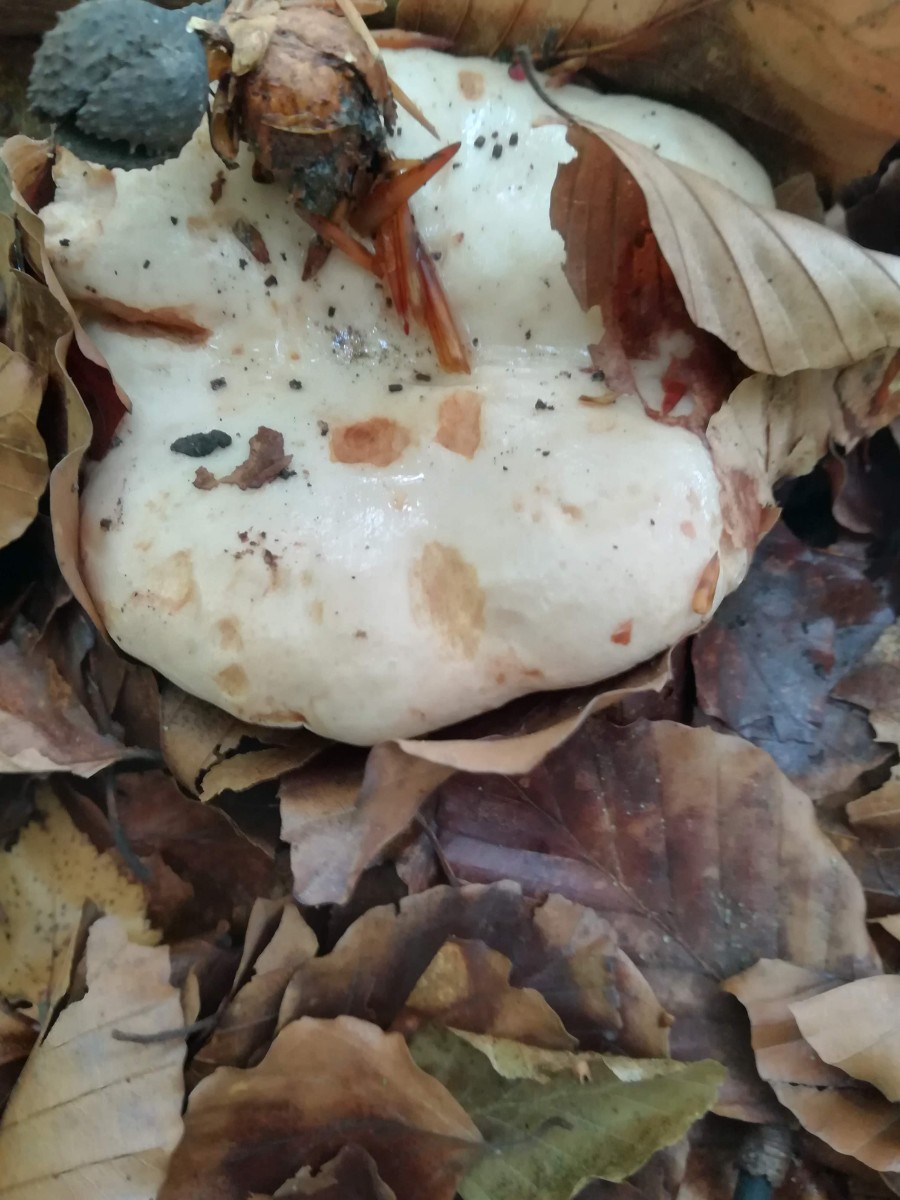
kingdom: Fungi
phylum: Basidiomycota
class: Agaricomycetes
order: Russulales
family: Russulaceae
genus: Lactarius
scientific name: Lactarius pallidus
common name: bleg mælkehat
